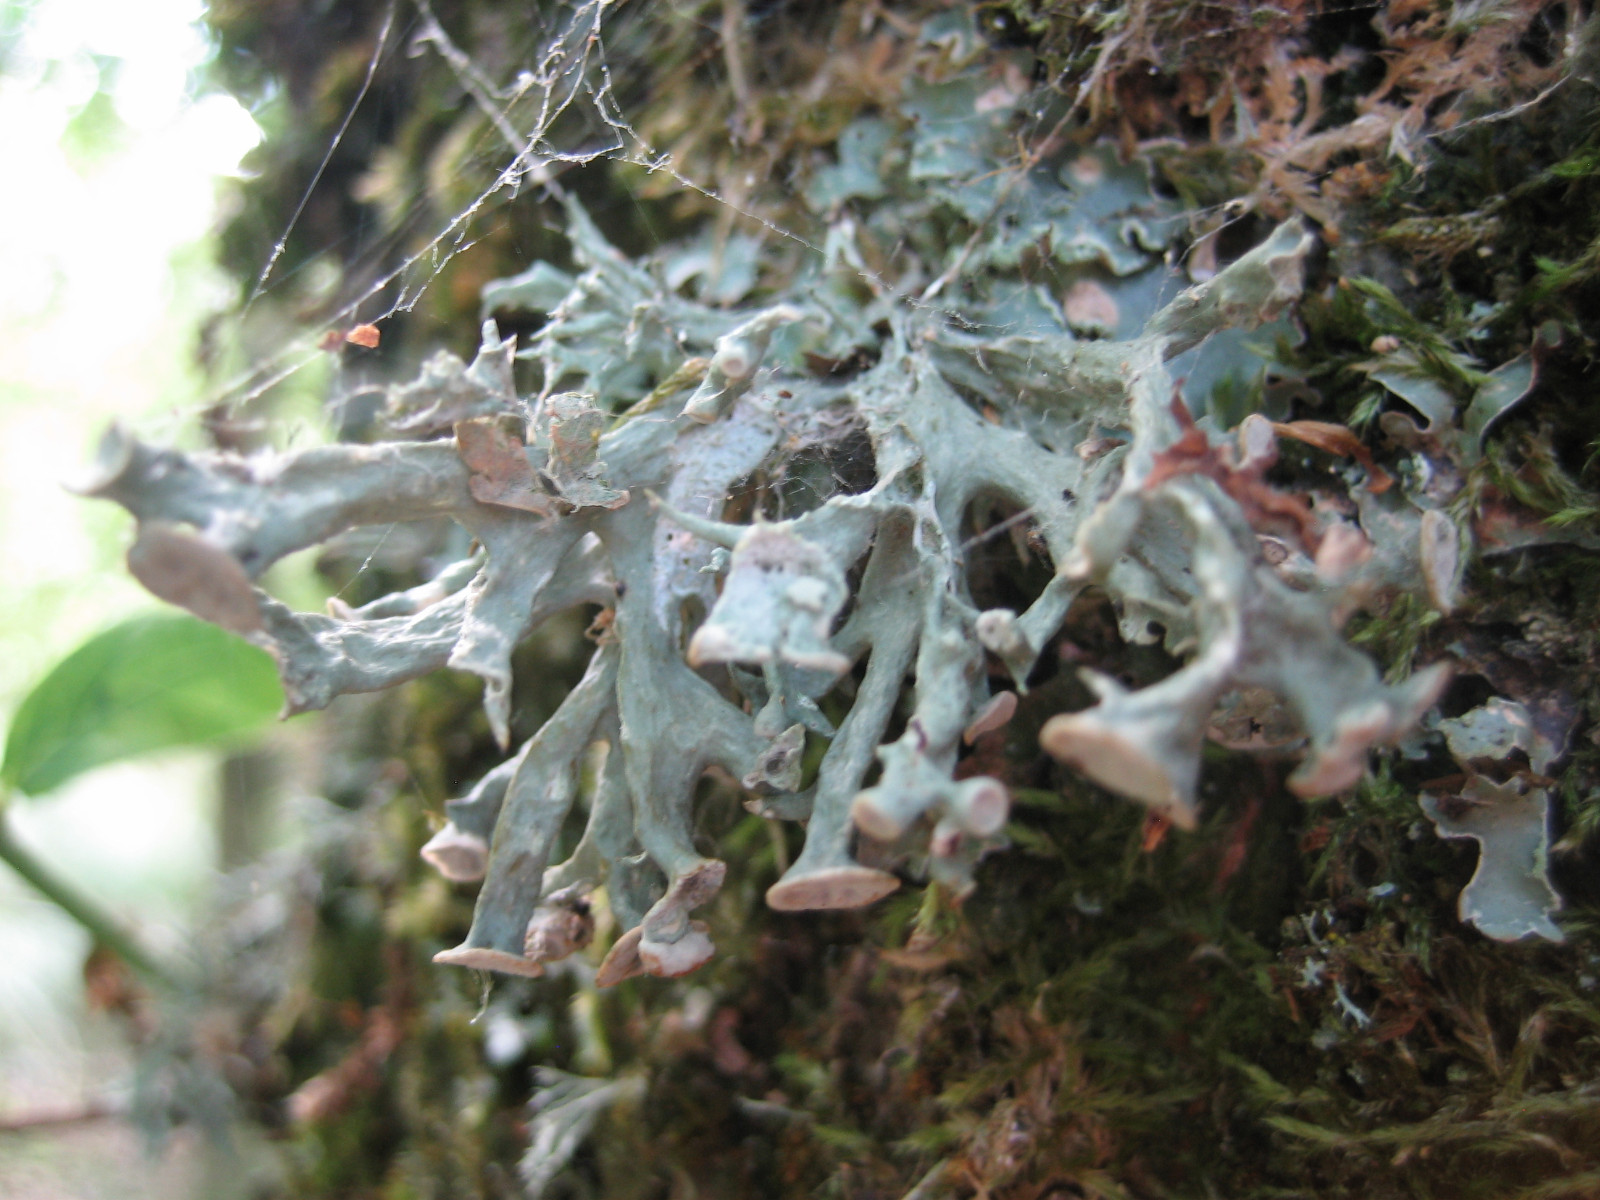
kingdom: Fungi
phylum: Ascomycota
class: Lecanoromycetes
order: Lecanorales
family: Ramalinaceae
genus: Ramalina
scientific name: Ramalina fastigiata
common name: tue-grenlav
